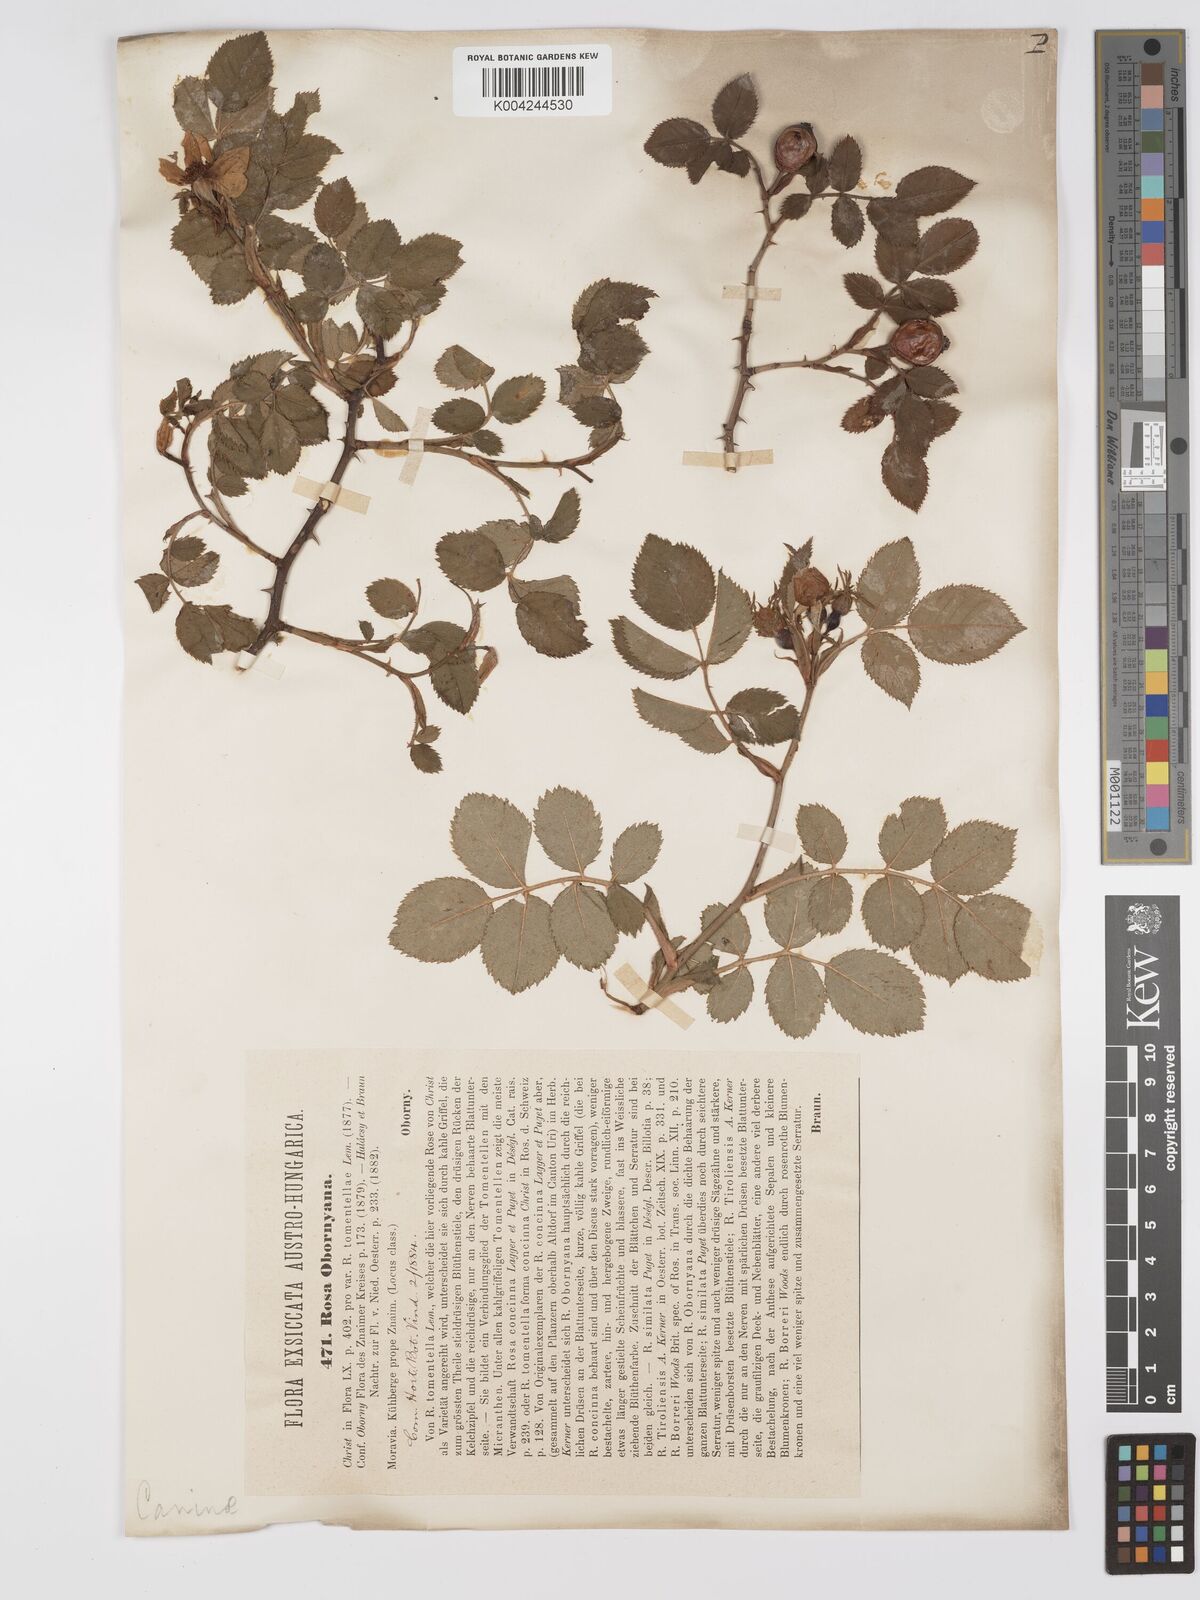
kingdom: Plantae
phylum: Tracheophyta
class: Magnoliopsida
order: Rosales
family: Rosaceae
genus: Rosa
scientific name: Rosa
